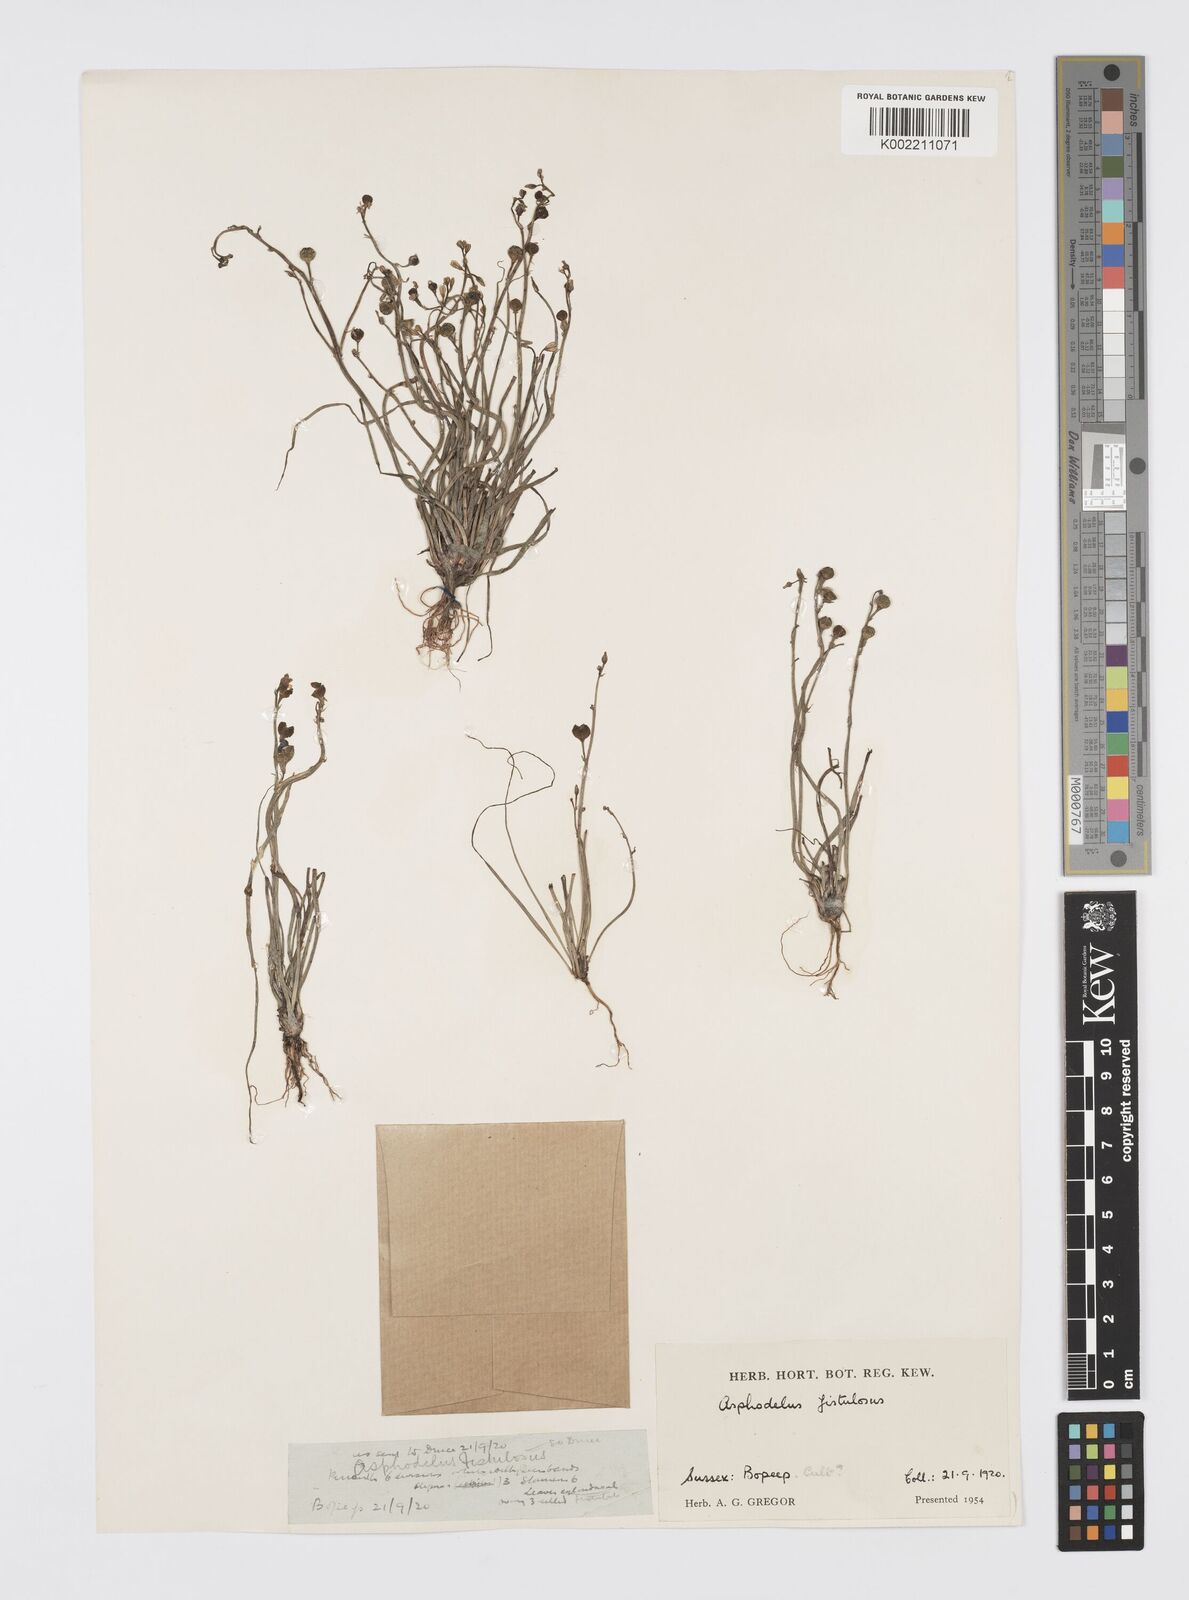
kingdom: Plantae
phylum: Tracheophyta
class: Liliopsida
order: Asparagales
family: Asphodelaceae
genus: Asphodelus
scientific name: Asphodelus tenuifolius
